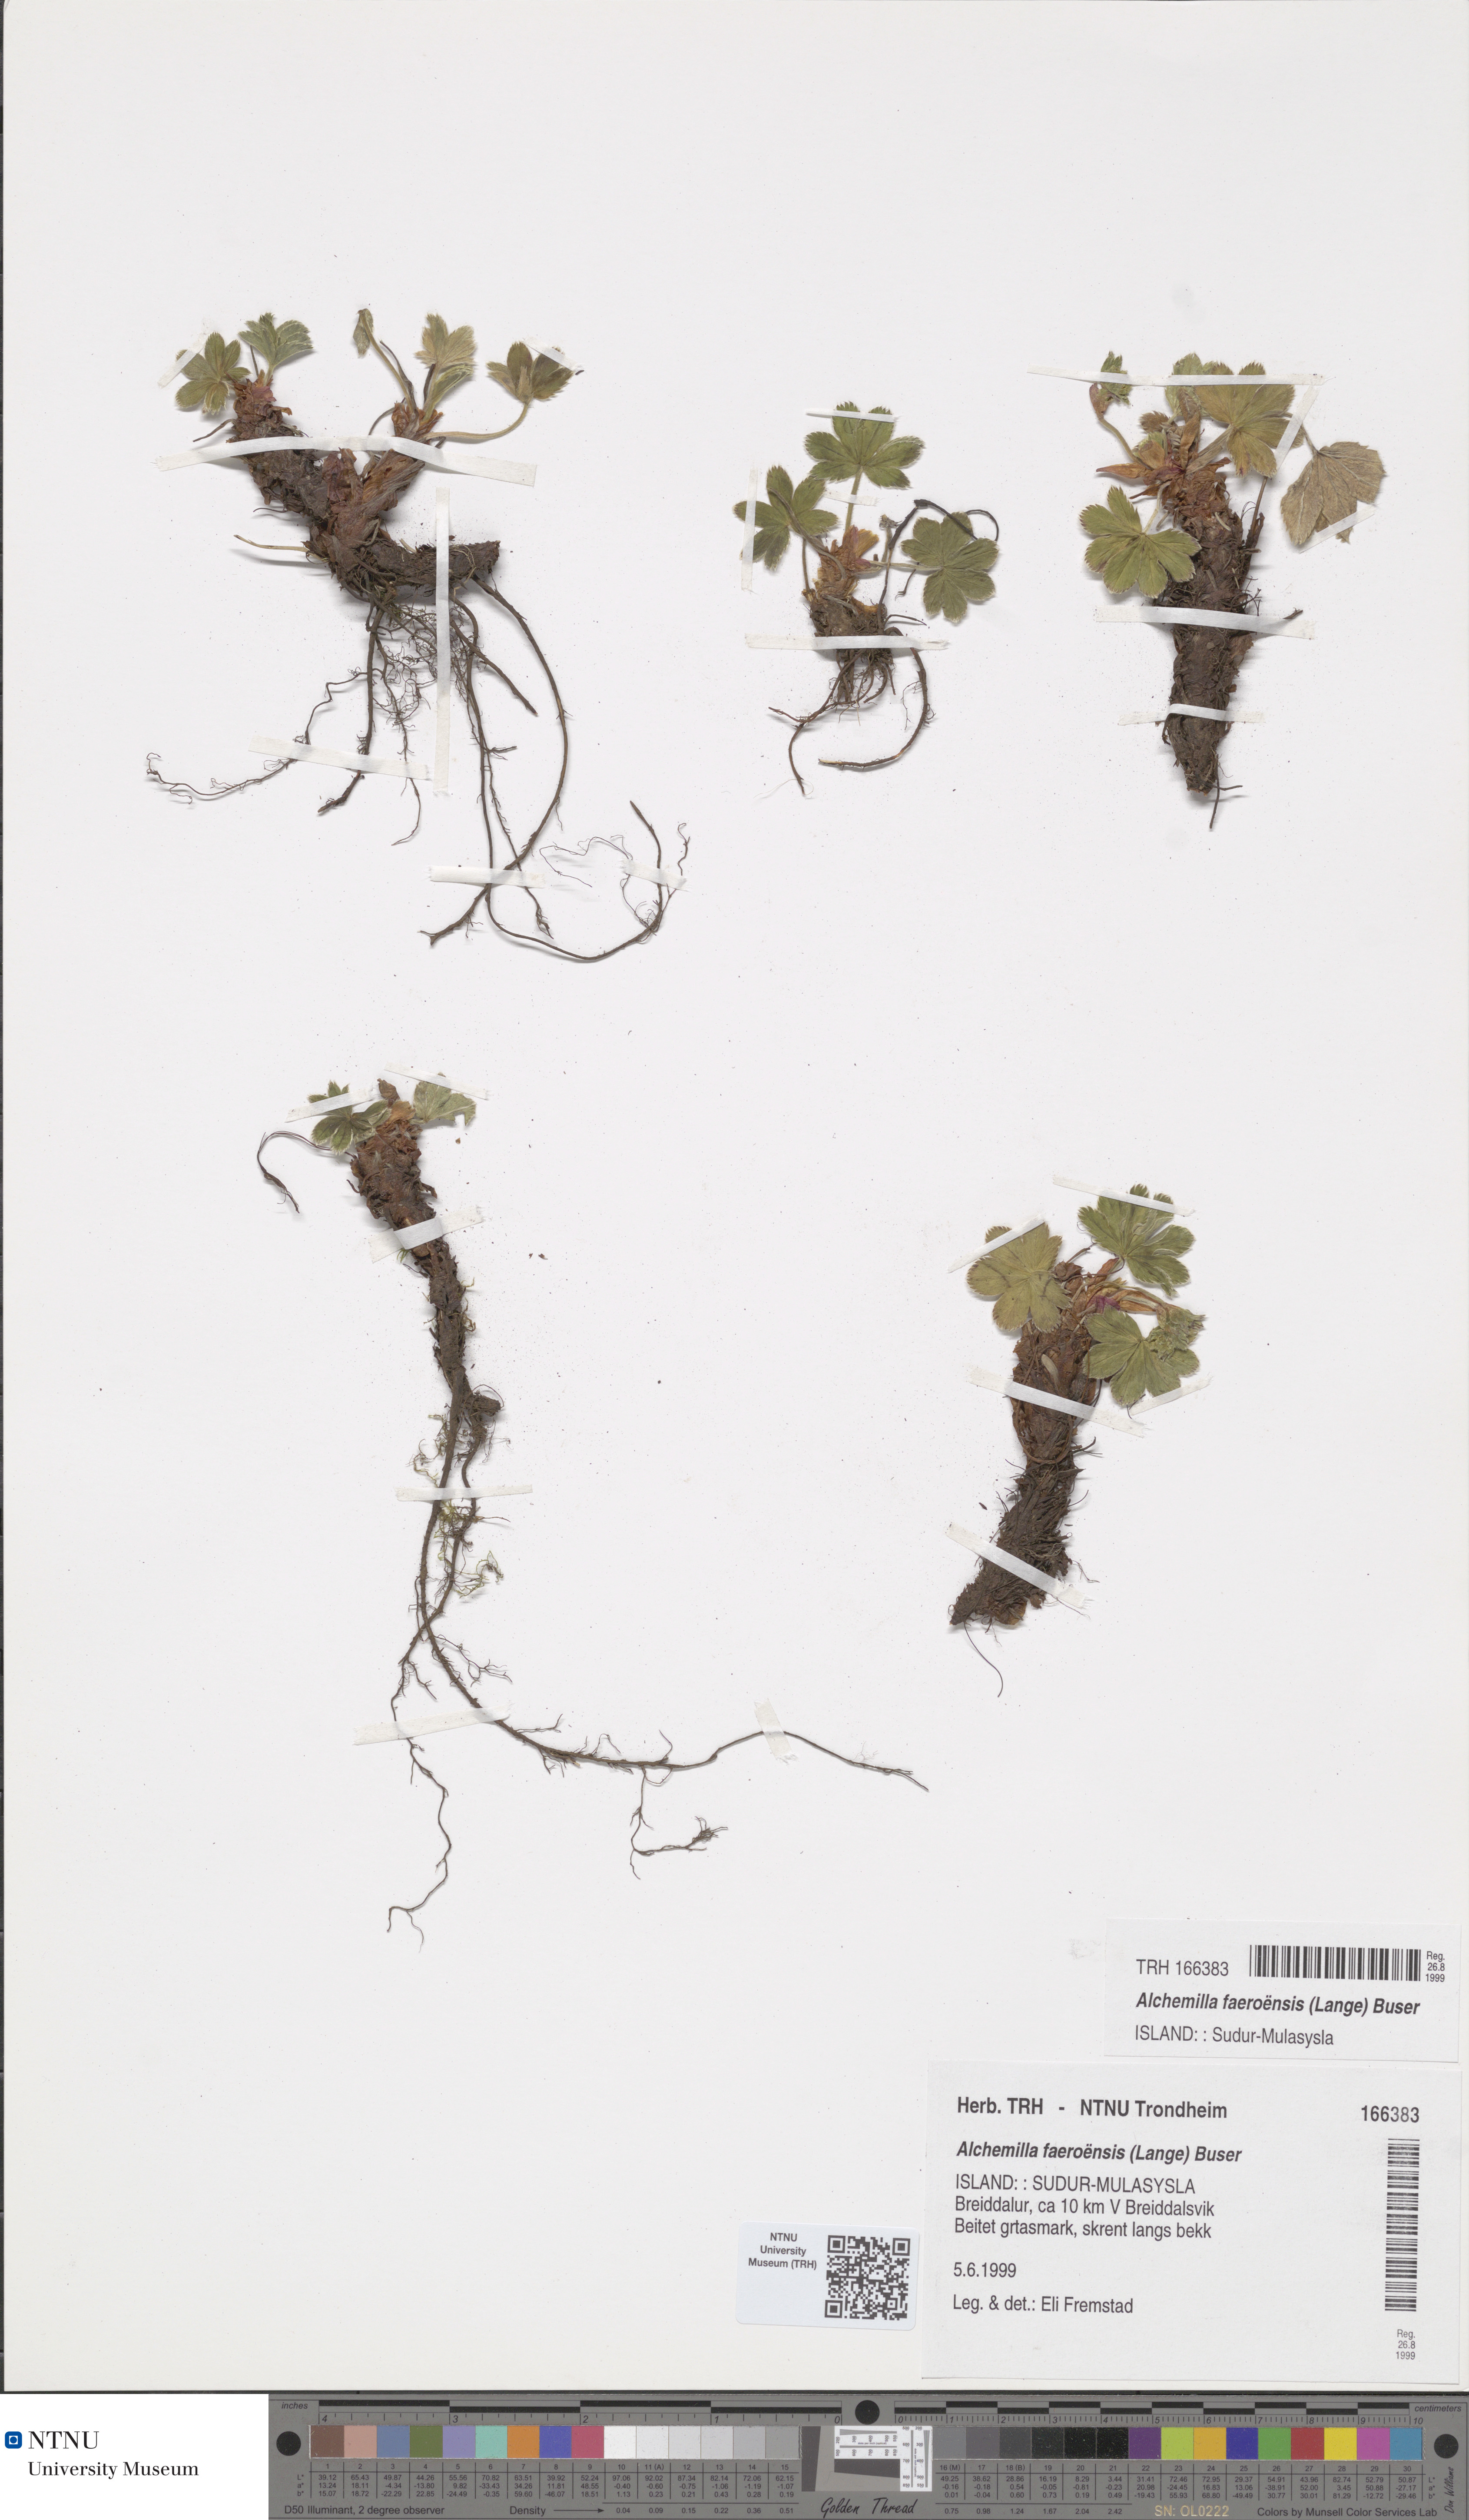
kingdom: Plantae
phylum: Tracheophyta
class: Magnoliopsida
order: Rosales
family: Rosaceae
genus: Alchemilla
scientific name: Alchemilla faeroensis
